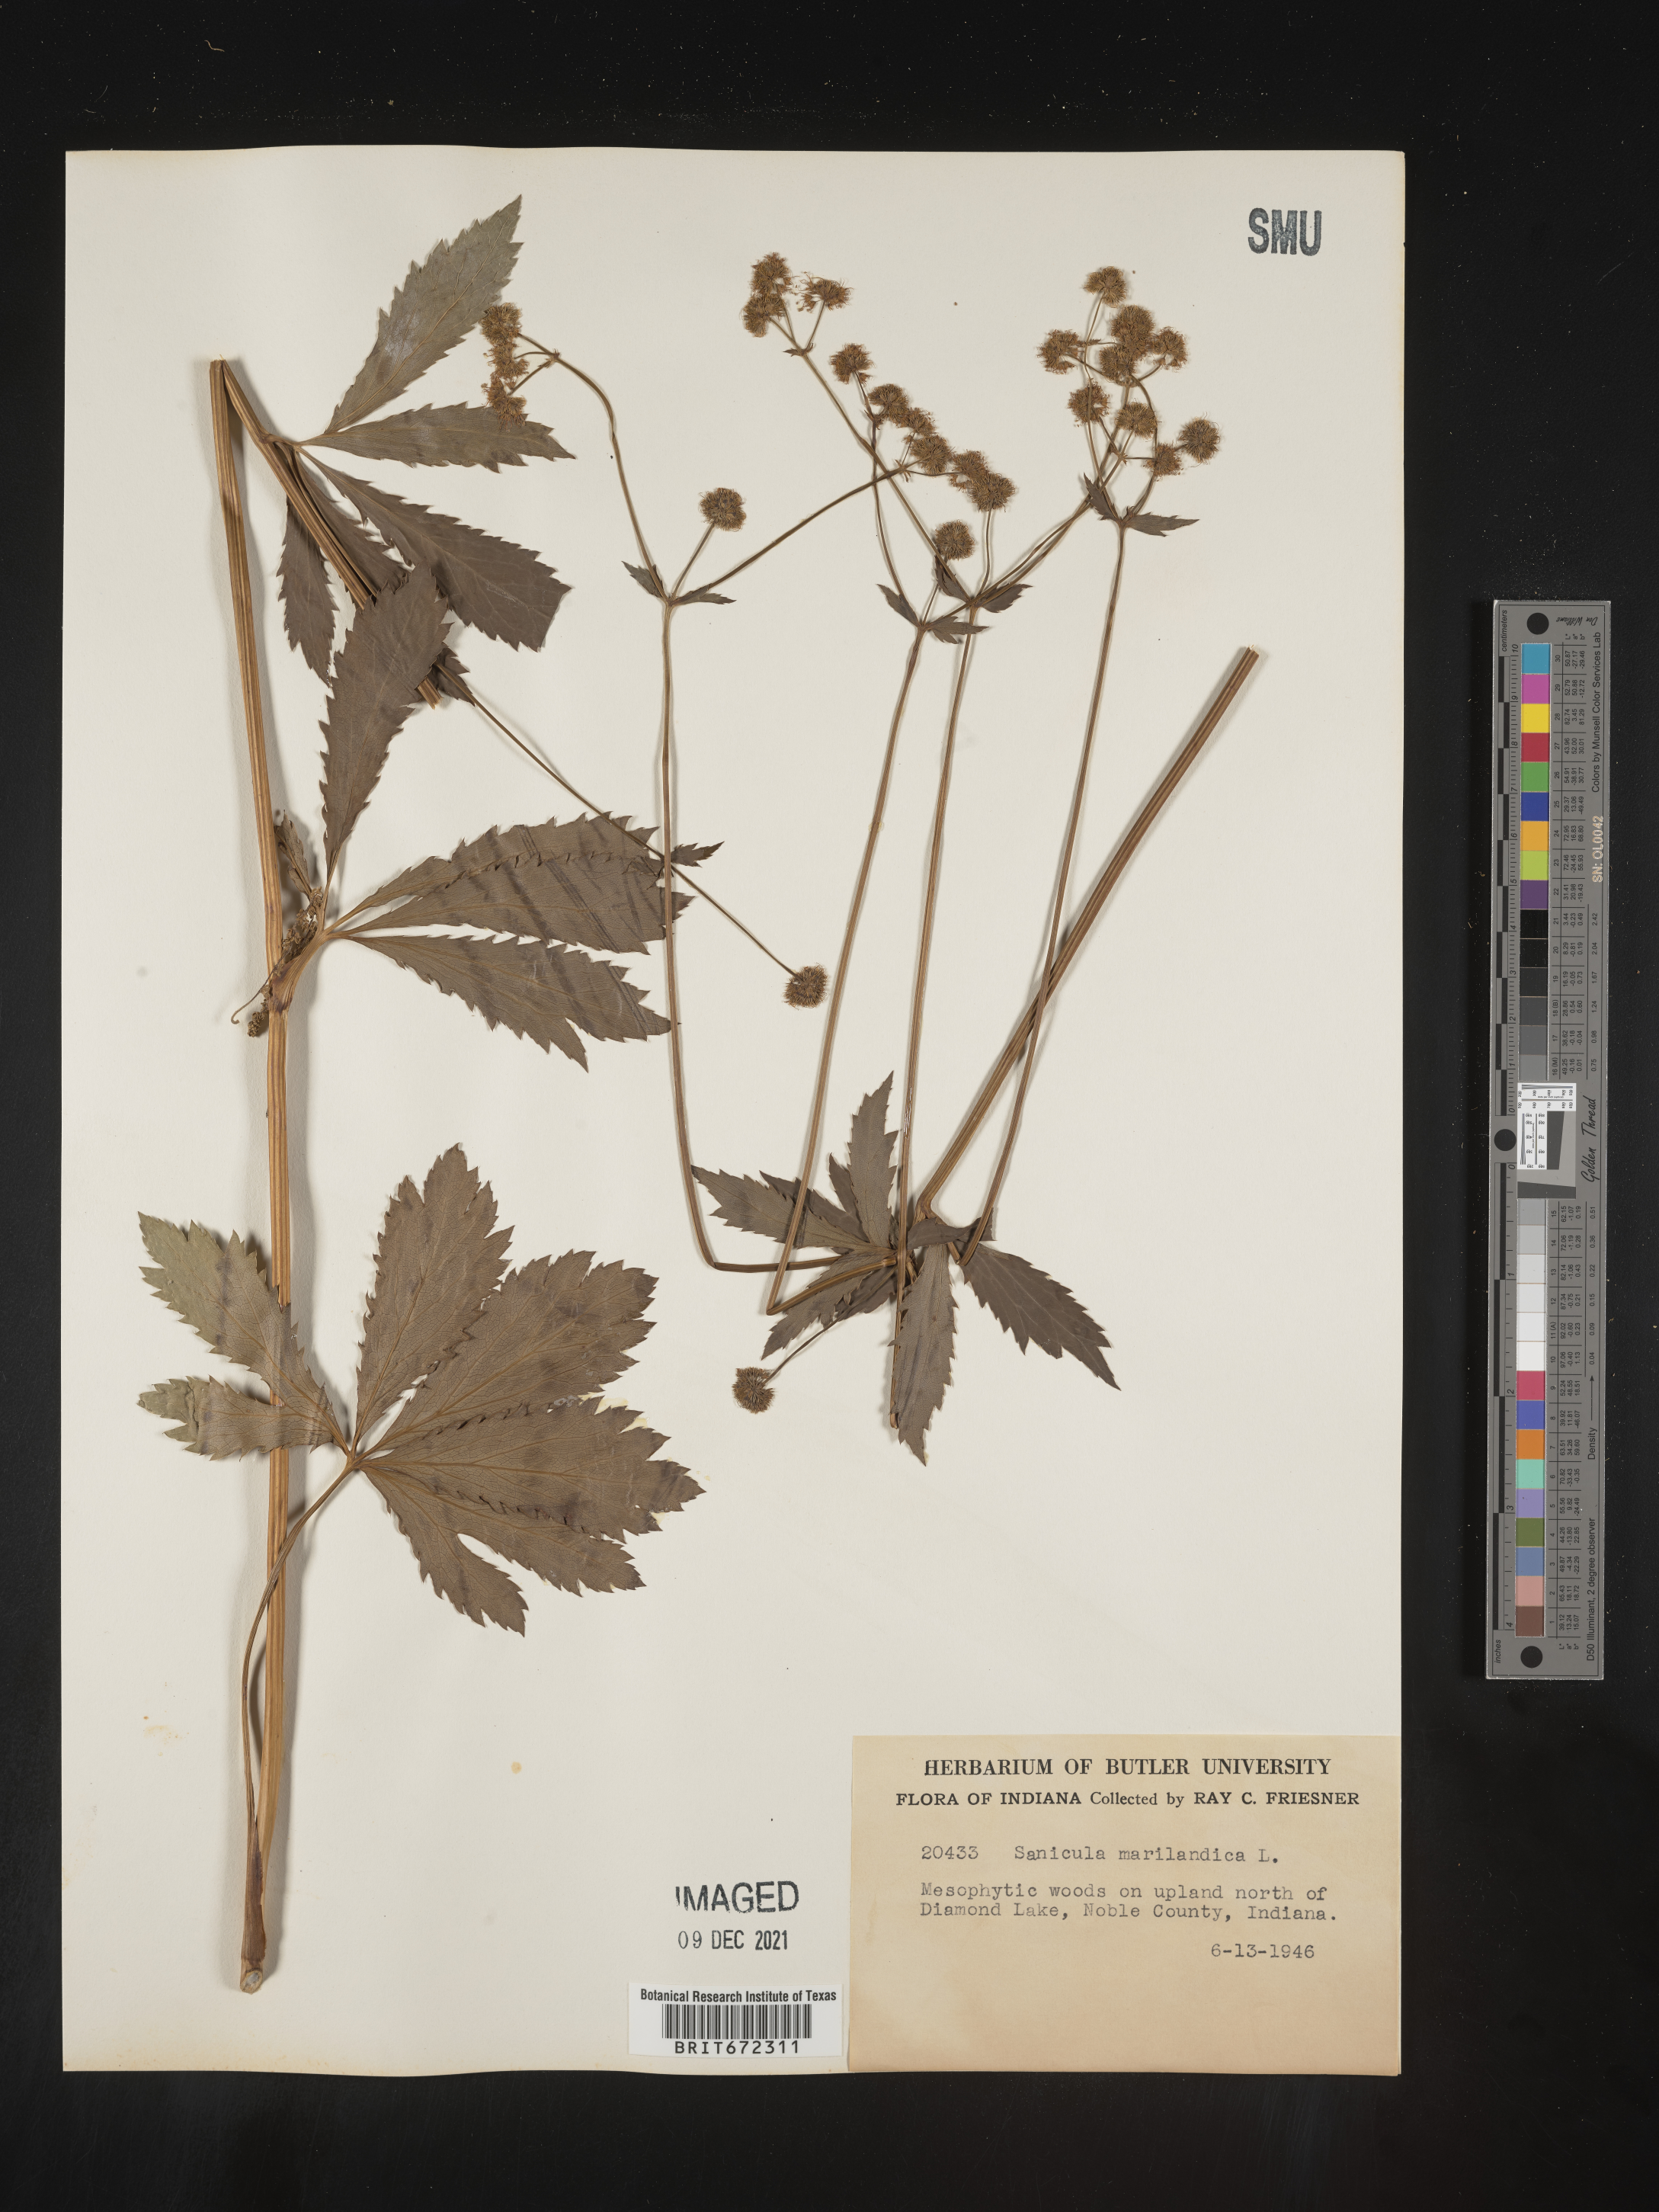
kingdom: Plantae
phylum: Tracheophyta
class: Magnoliopsida
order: Apiales
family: Apiaceae
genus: Sanicula
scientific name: Sanicula marilandica
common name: Black snakeroot
